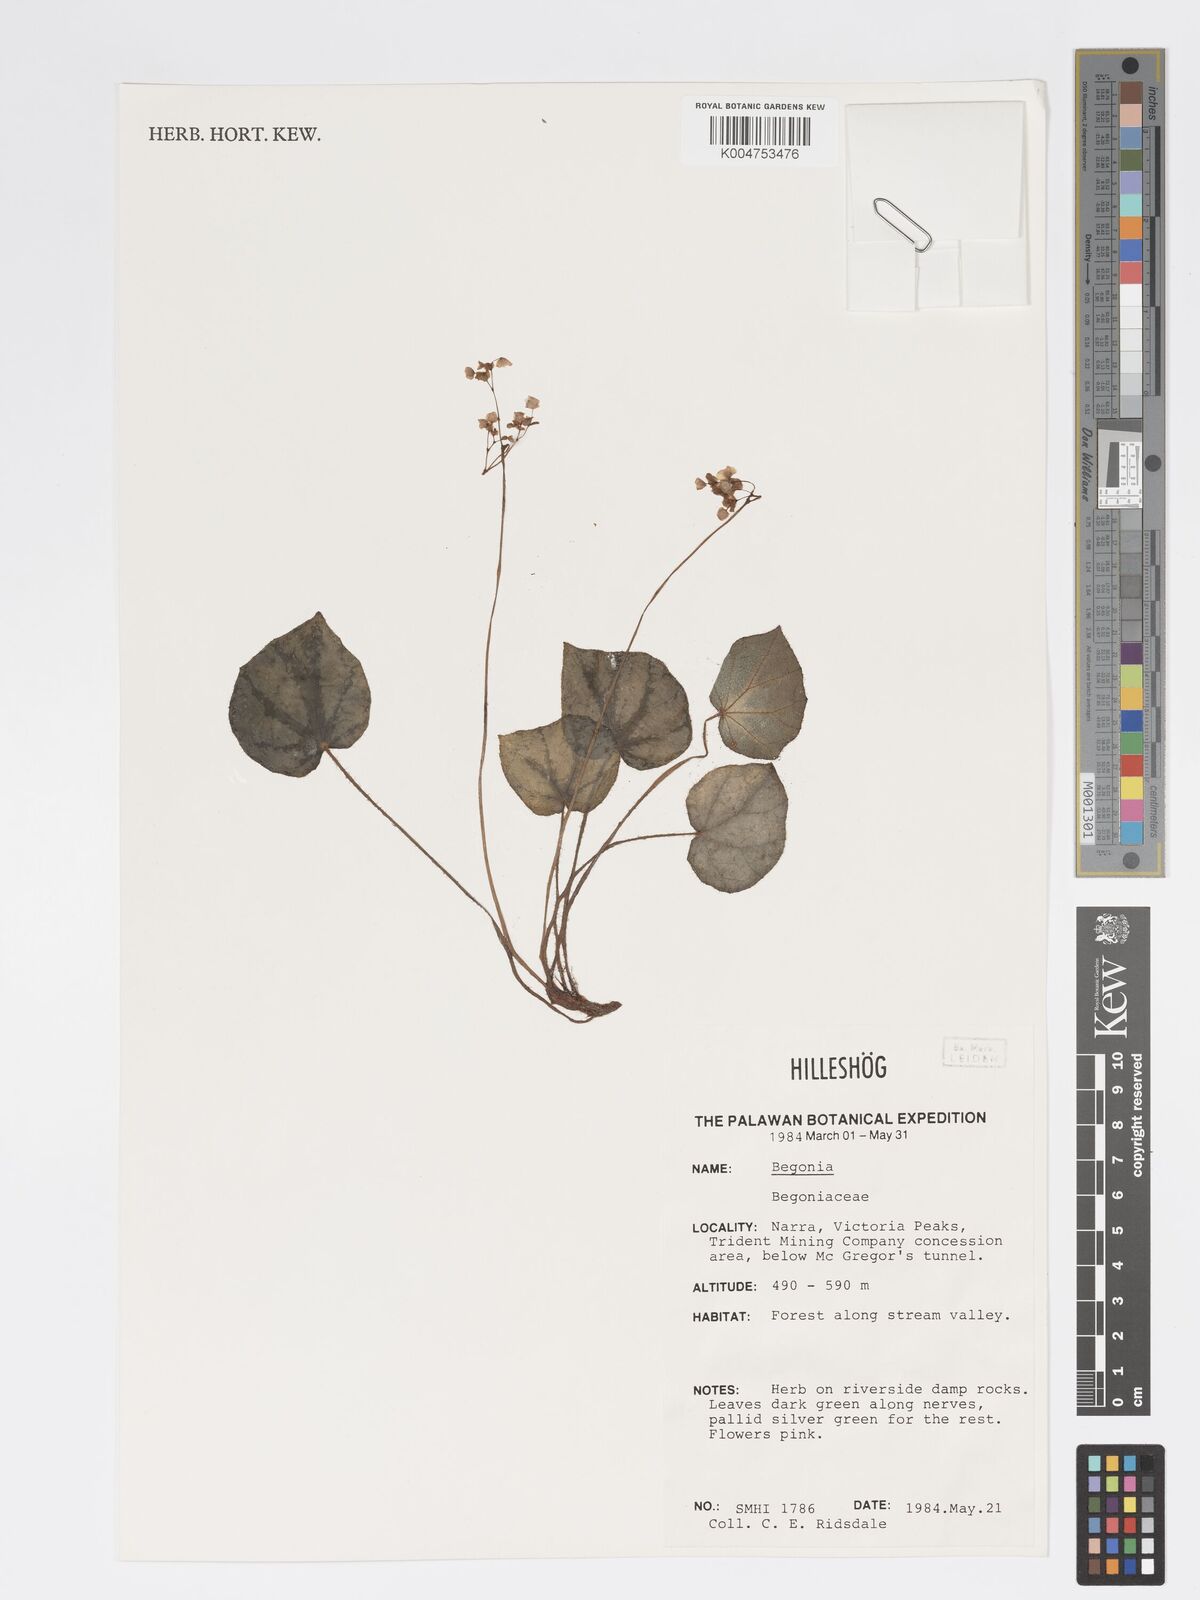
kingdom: Plantae
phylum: Tracheophyta
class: Magnoliopsida
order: Cucurbitales
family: Begoniaceae
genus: Begonia
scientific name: Begonia
